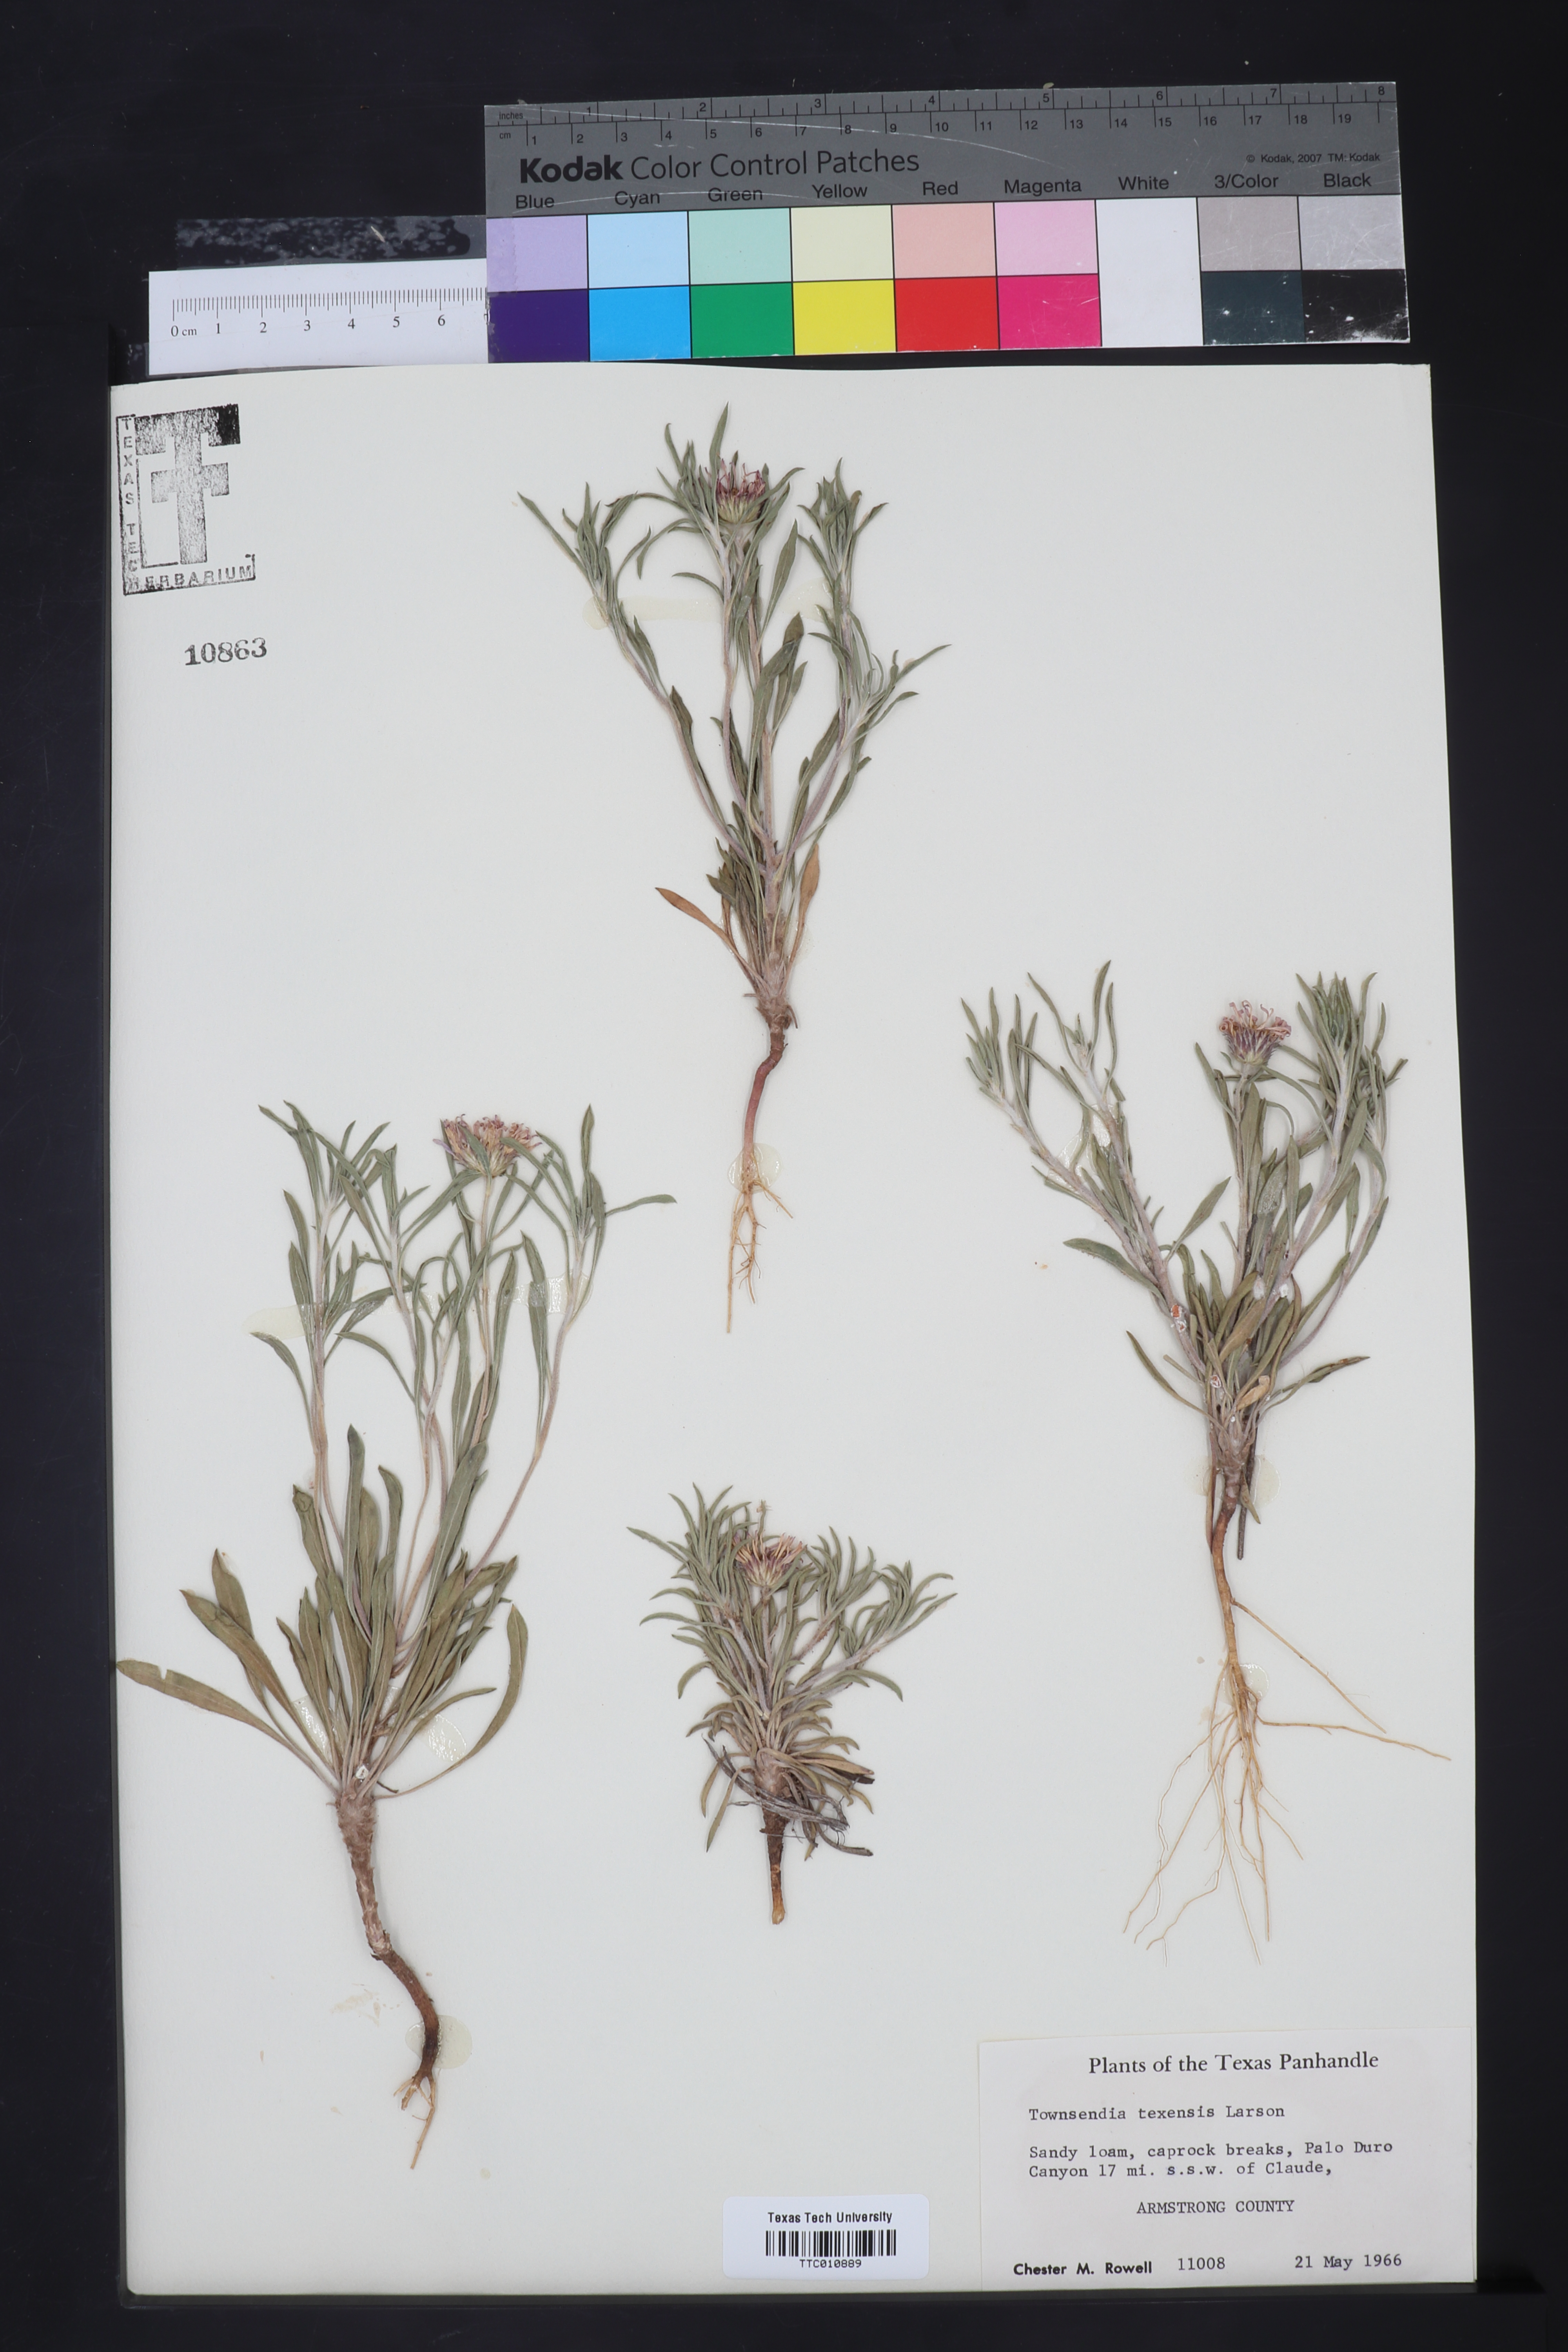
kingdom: Plantae
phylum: Tracheophyta
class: Magnoliopsida
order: Asterales
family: Asteraceae
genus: Townsendia
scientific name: Townsendia texensis
